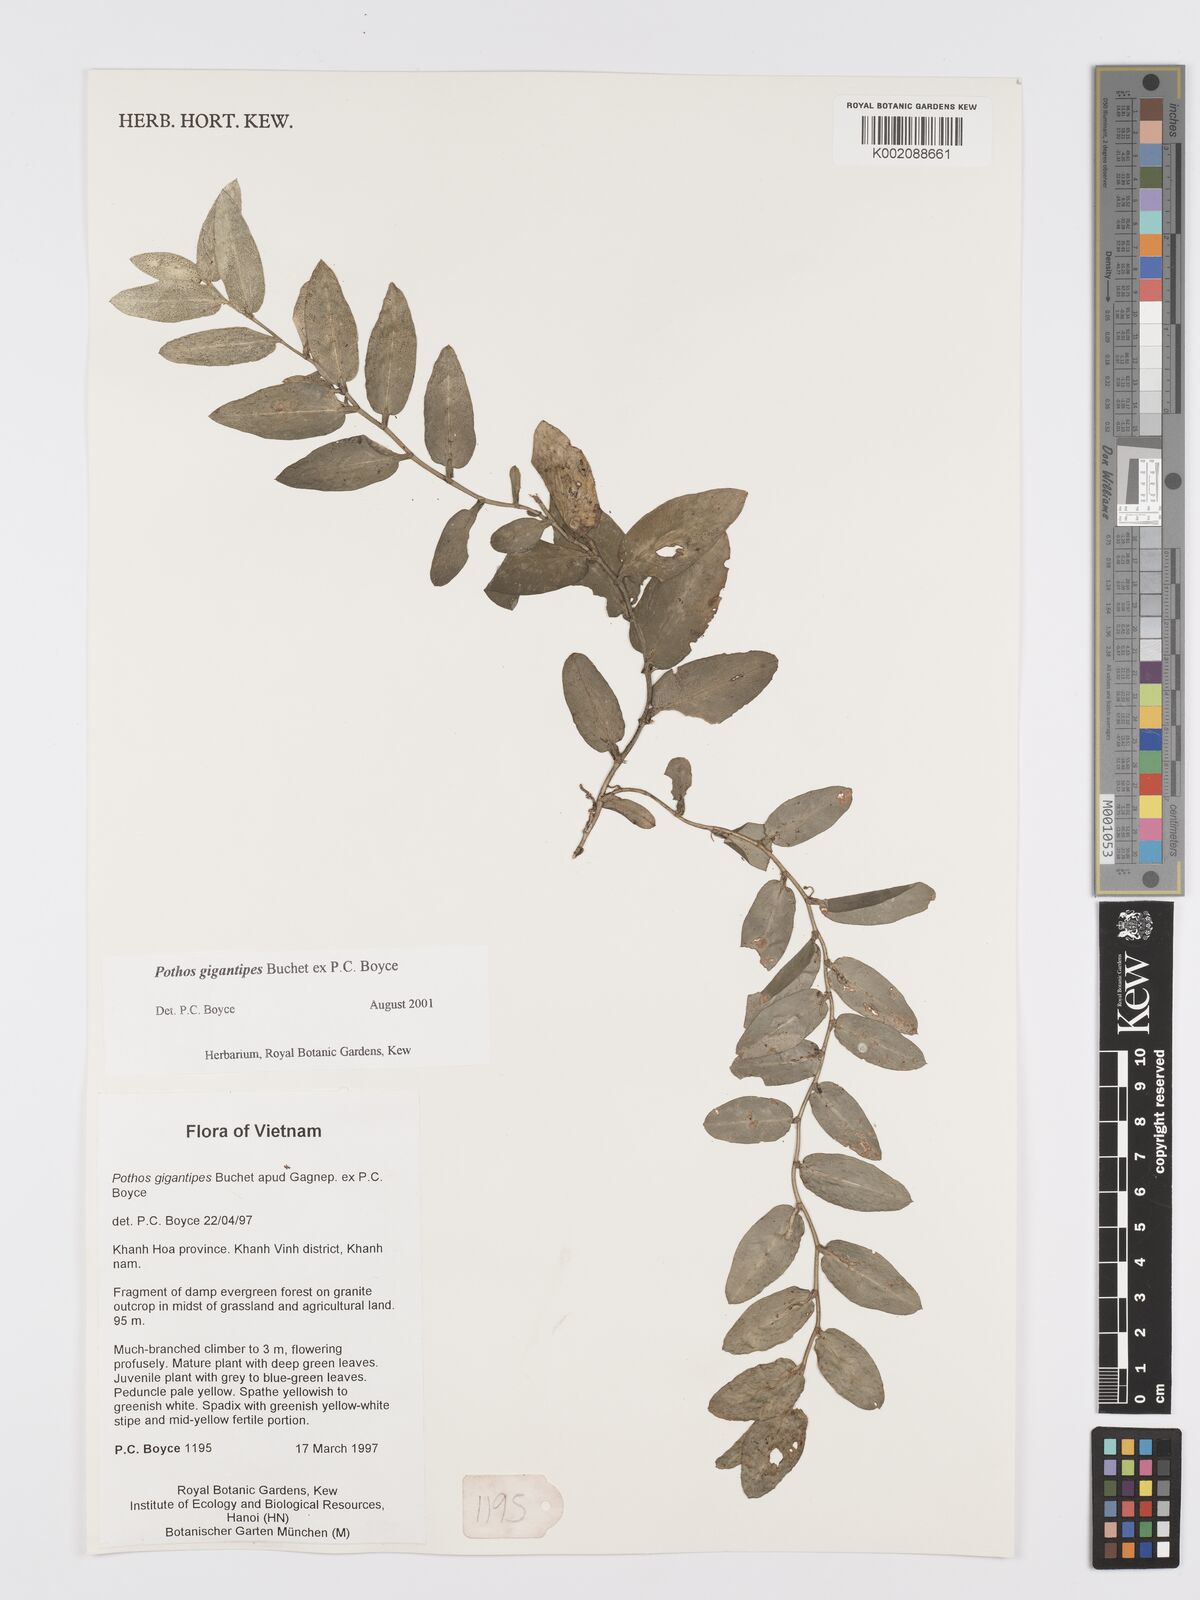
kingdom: Plantae
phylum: Tracheophyta
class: Liliopsida
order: Alismatales
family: Araceae
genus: Pothos
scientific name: Pothos gigantipes
